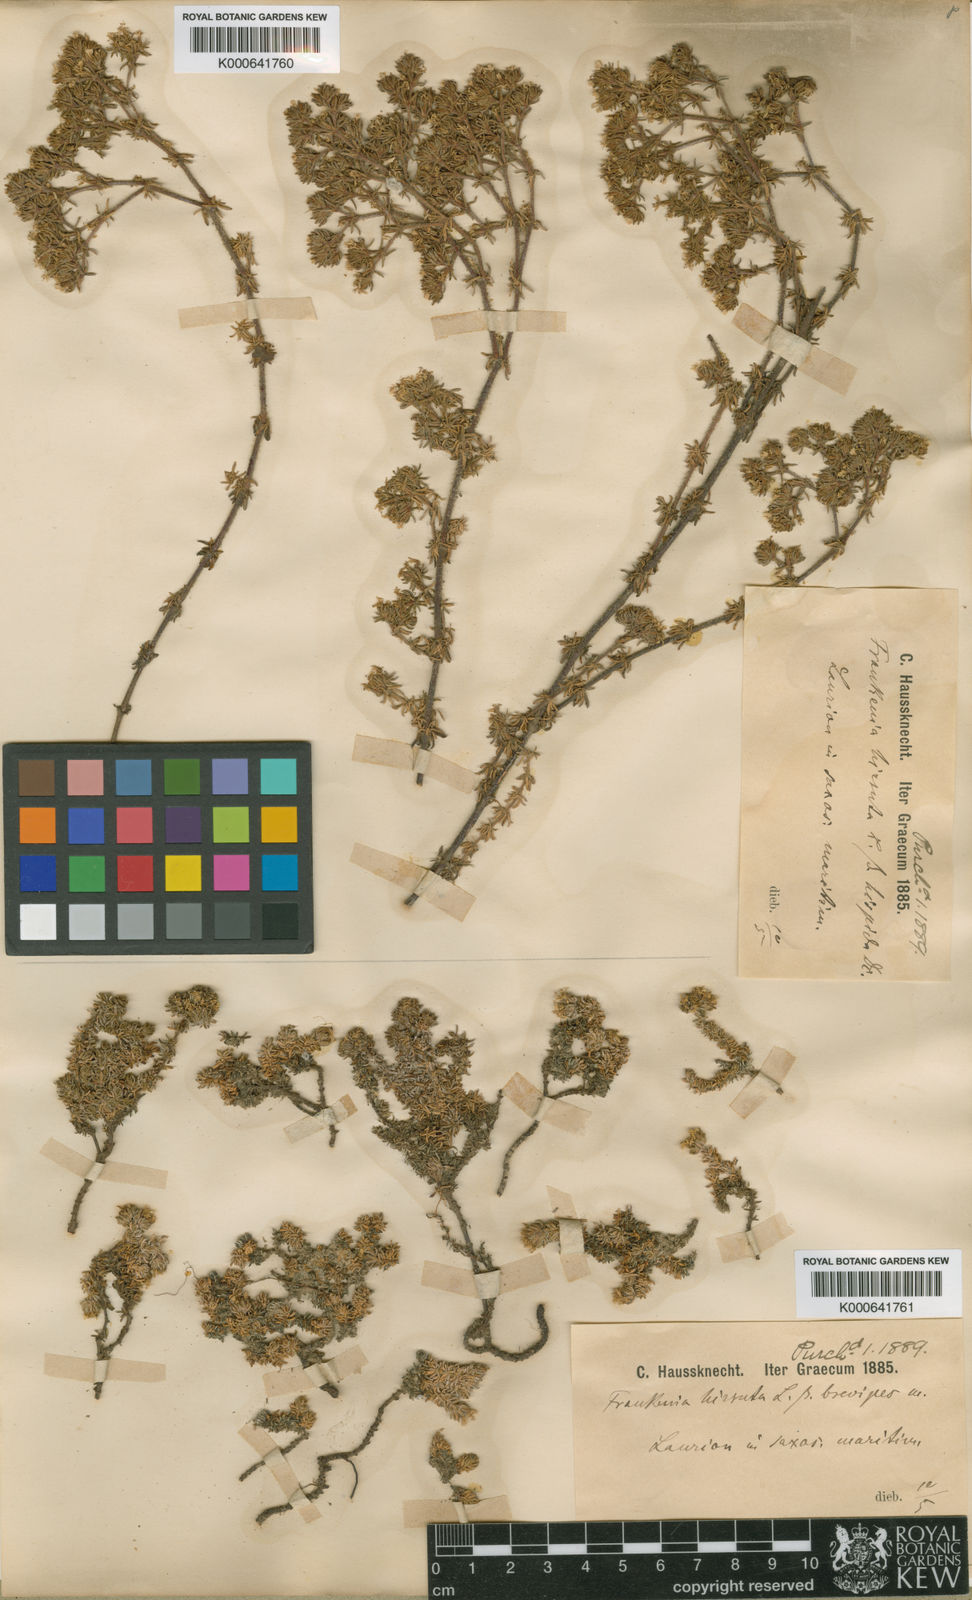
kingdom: Plantae
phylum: Tracheophyta
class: Magnoliopsida
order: Caryophyllales
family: Frankeniaceae
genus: Frankenia
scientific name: Frankenia hirsuta
